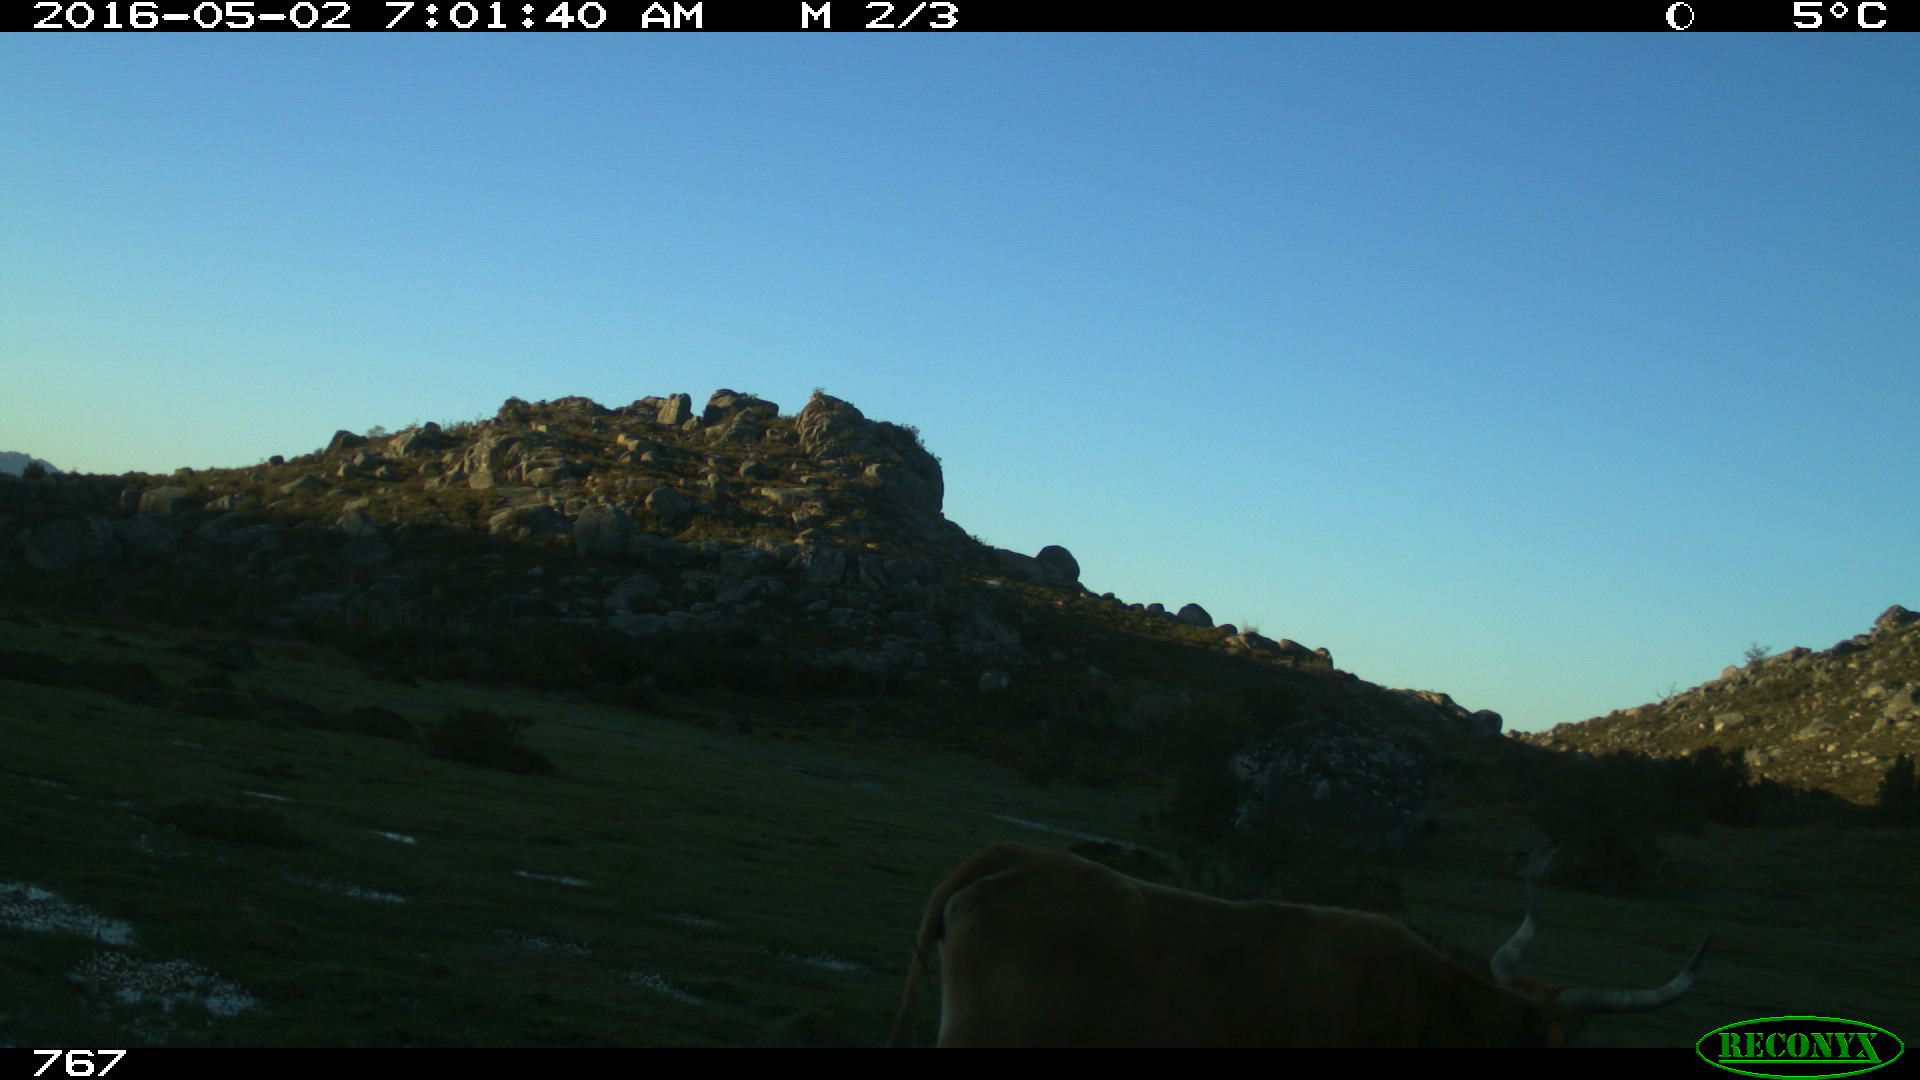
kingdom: Animalia
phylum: Chordata
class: Mammalia
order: Artiodactyla
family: Bovidae
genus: Bos
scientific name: Bos taurus
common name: Domesticated cattle
